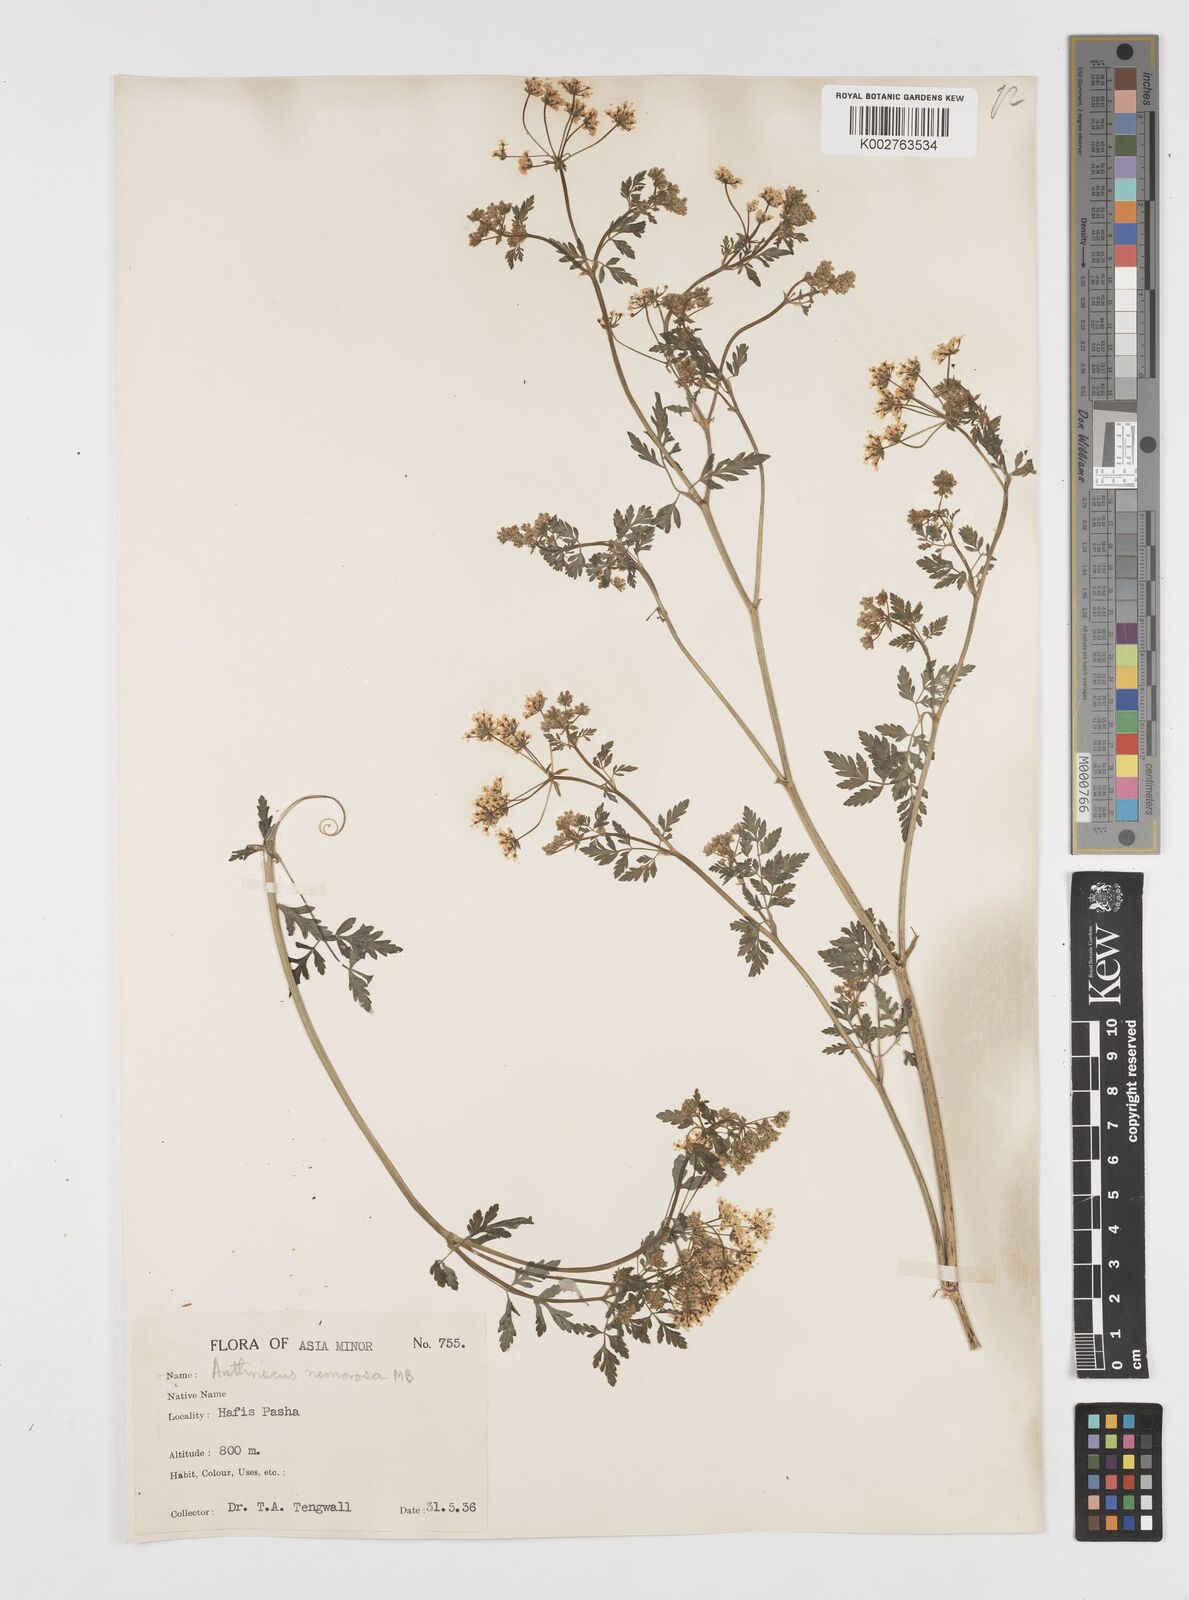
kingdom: Plantae
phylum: Tracheophyta
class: Magnoliopsida
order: Apiales
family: Apiaceae
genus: Anthriscus
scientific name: Anthriscus sylvestris
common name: Cow parsley
